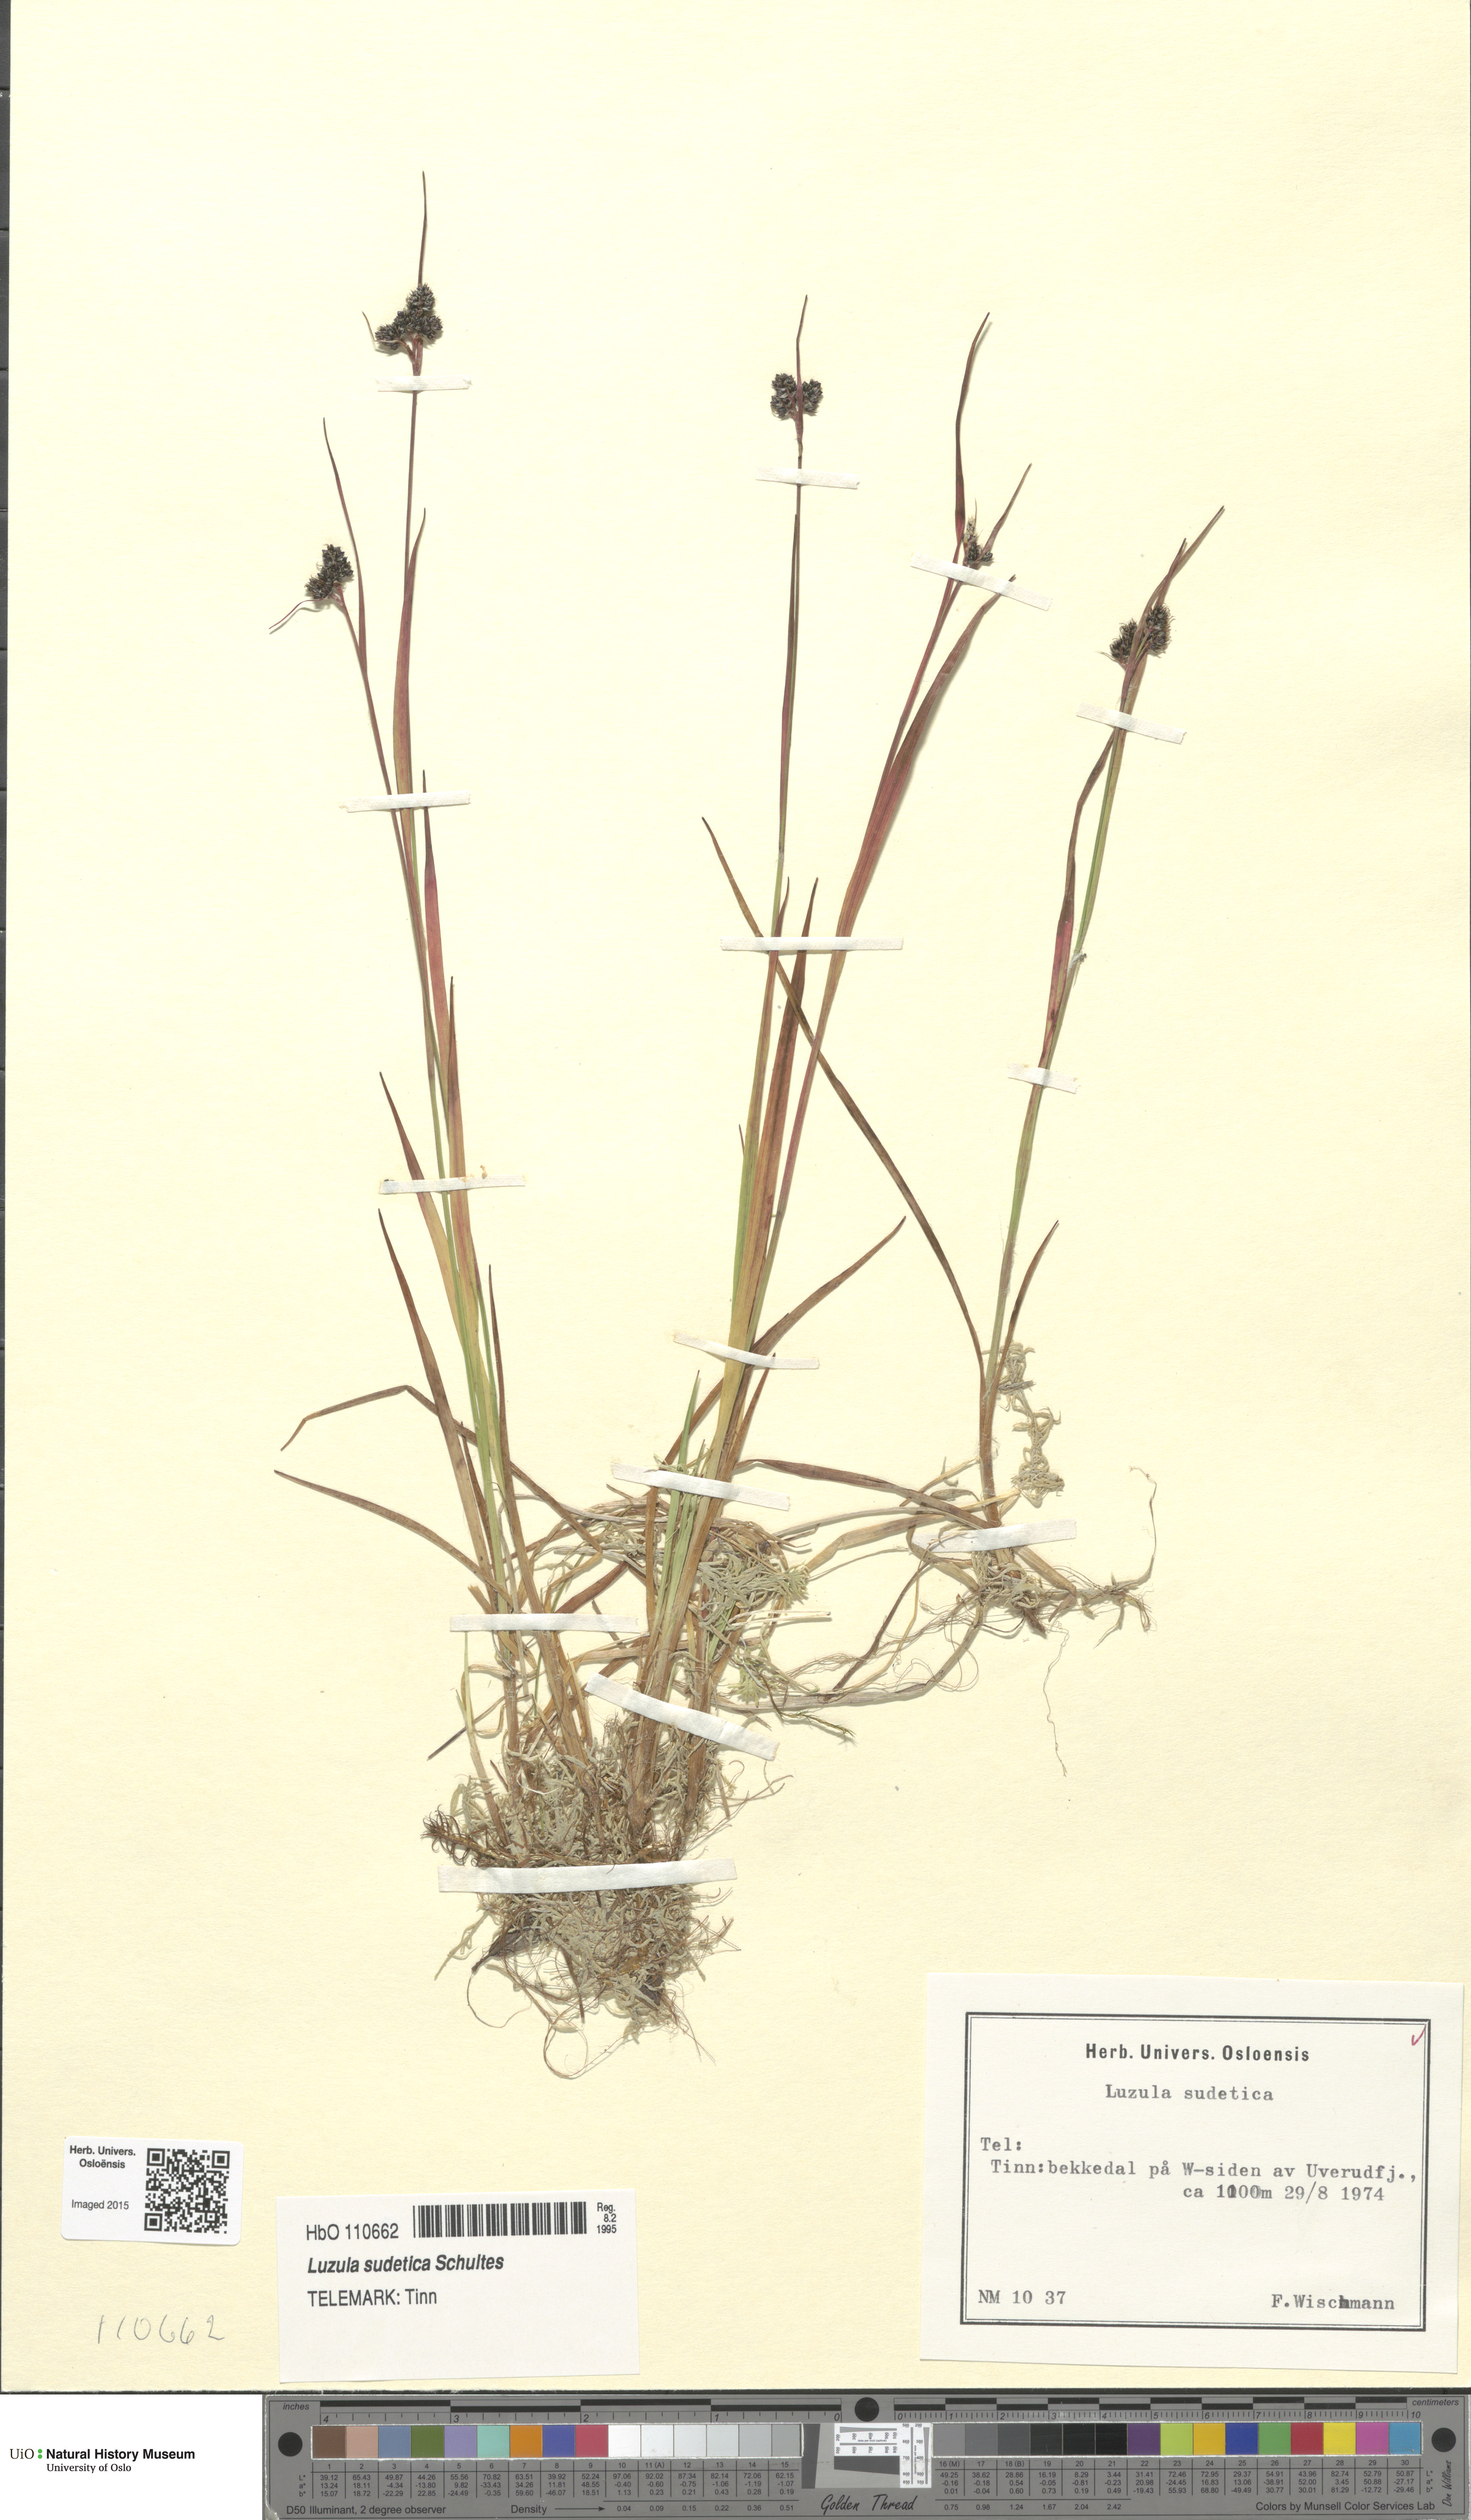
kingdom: Plantae
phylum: Tracheophyta
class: Liliopsida
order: Poales
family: Juncaceae
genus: Luzula
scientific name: Luzula sudetica
